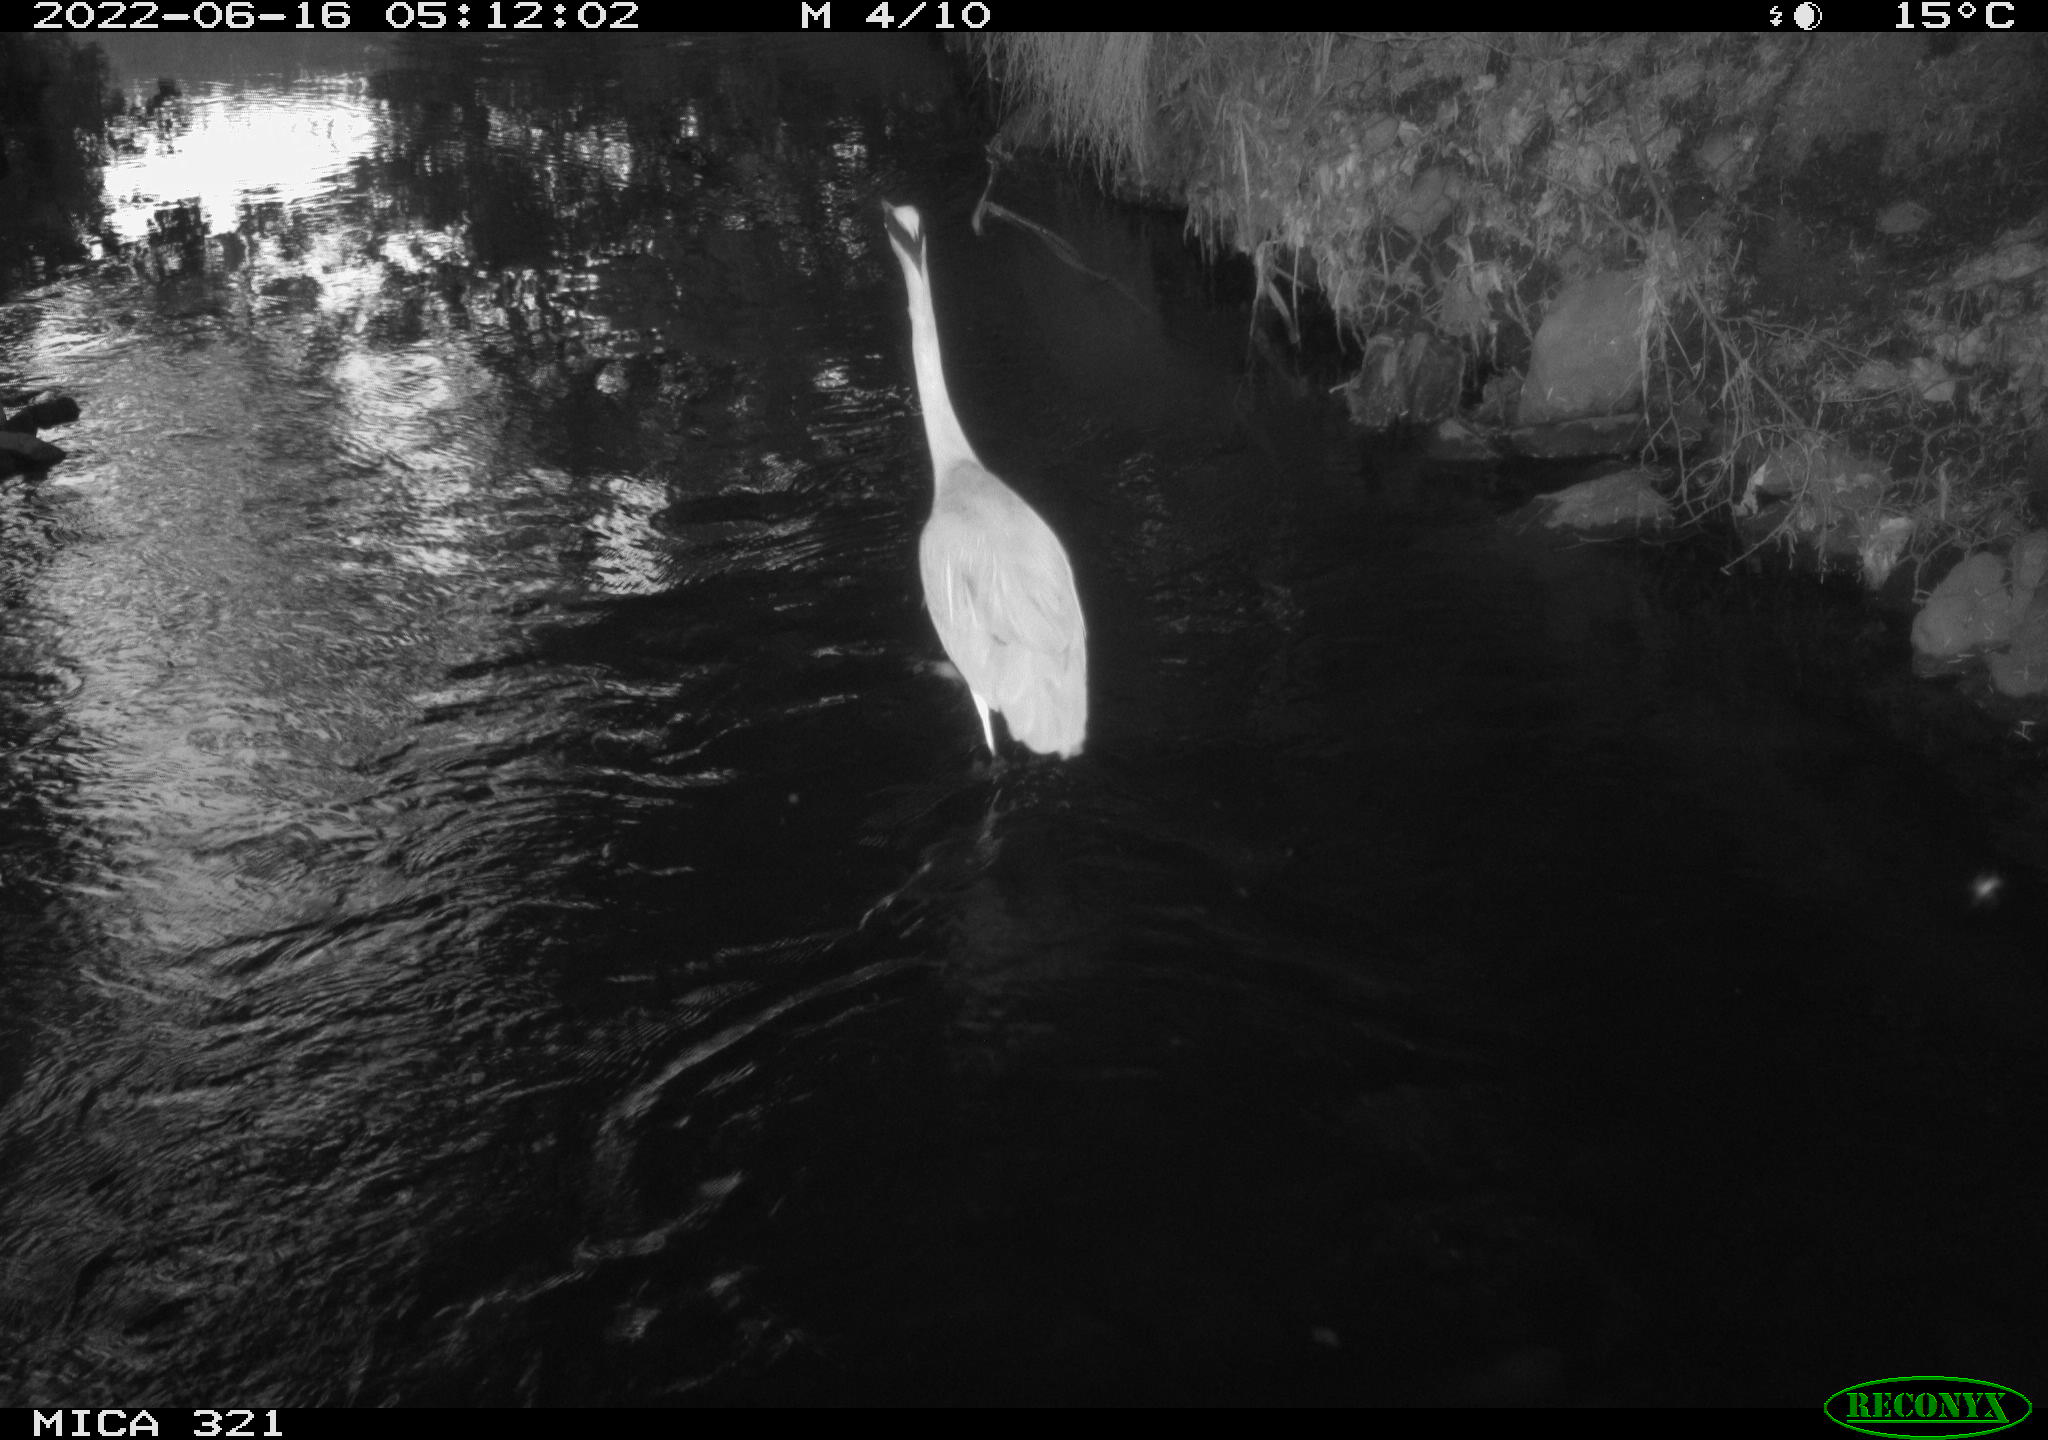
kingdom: Animalia
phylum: Chordata
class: Aves
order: Pelecaniformes
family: Ardeidae
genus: Ardea
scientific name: Ardea cinerea
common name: Grey heron
